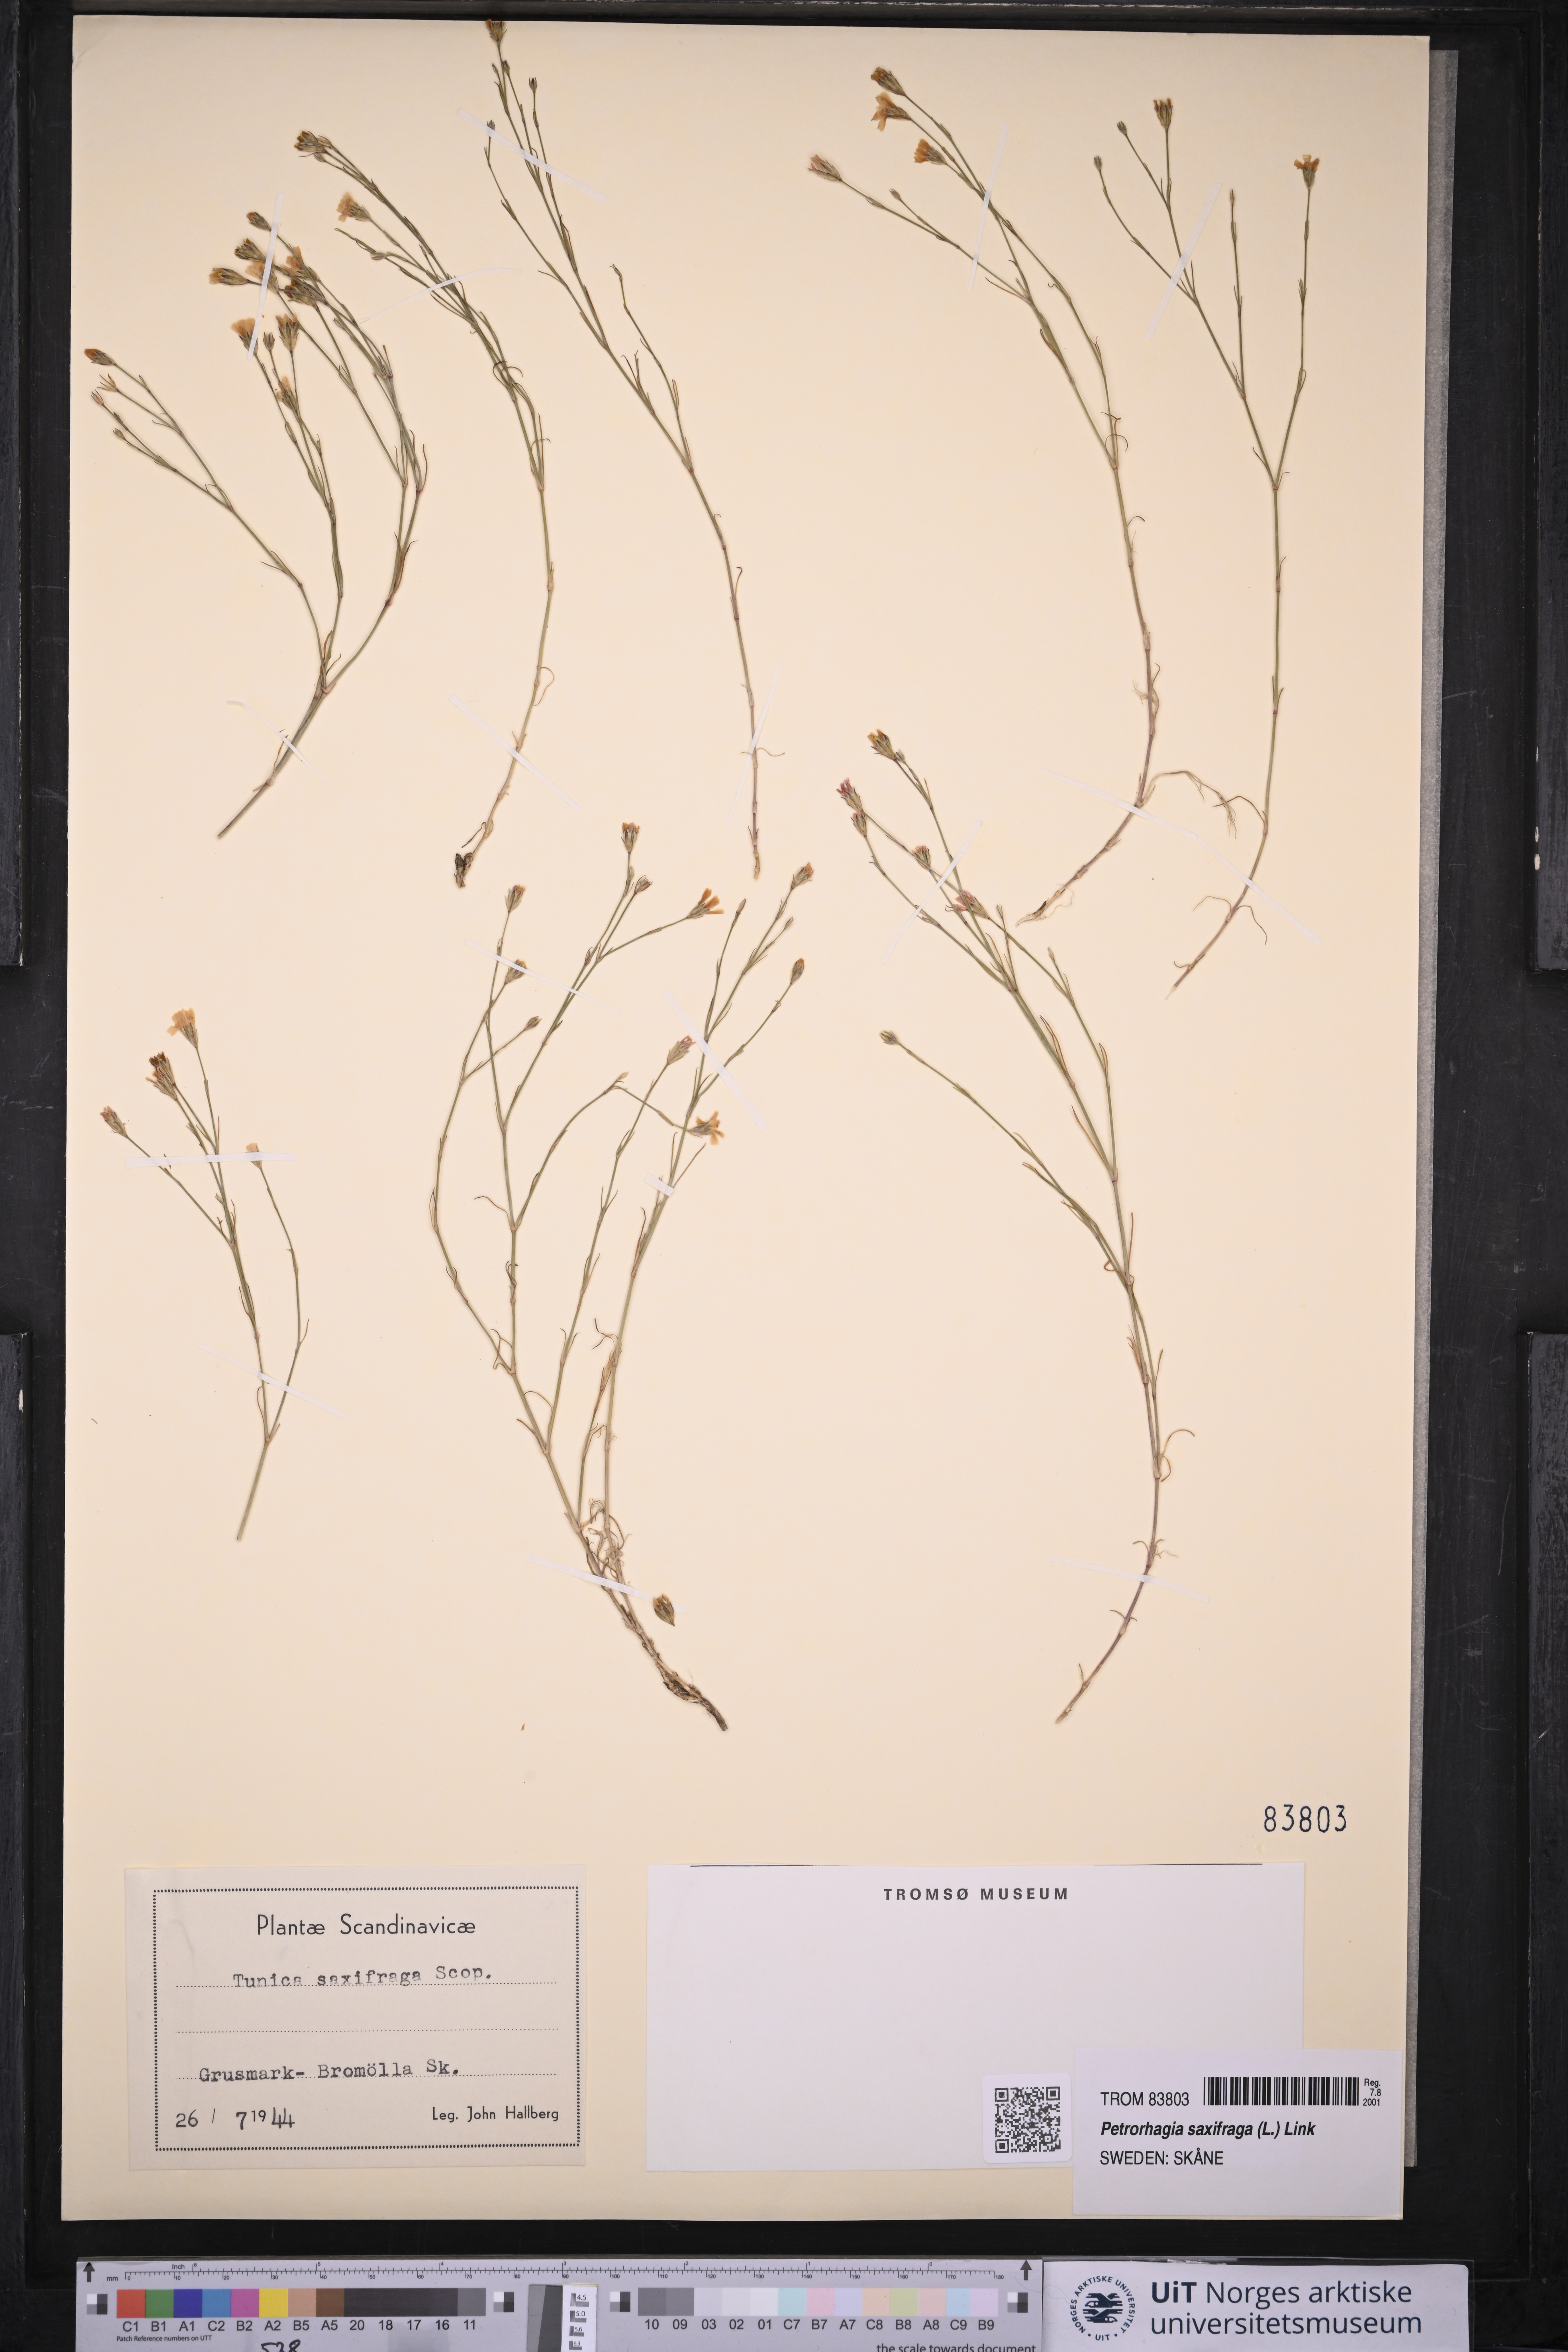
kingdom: Plantae
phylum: Tracheophyta
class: Magnoliopsida
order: Caryophyllales
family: Caryophyllaceae
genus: Petrorhagia
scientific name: Petrorhagia saxifraga
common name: Tunicflower
